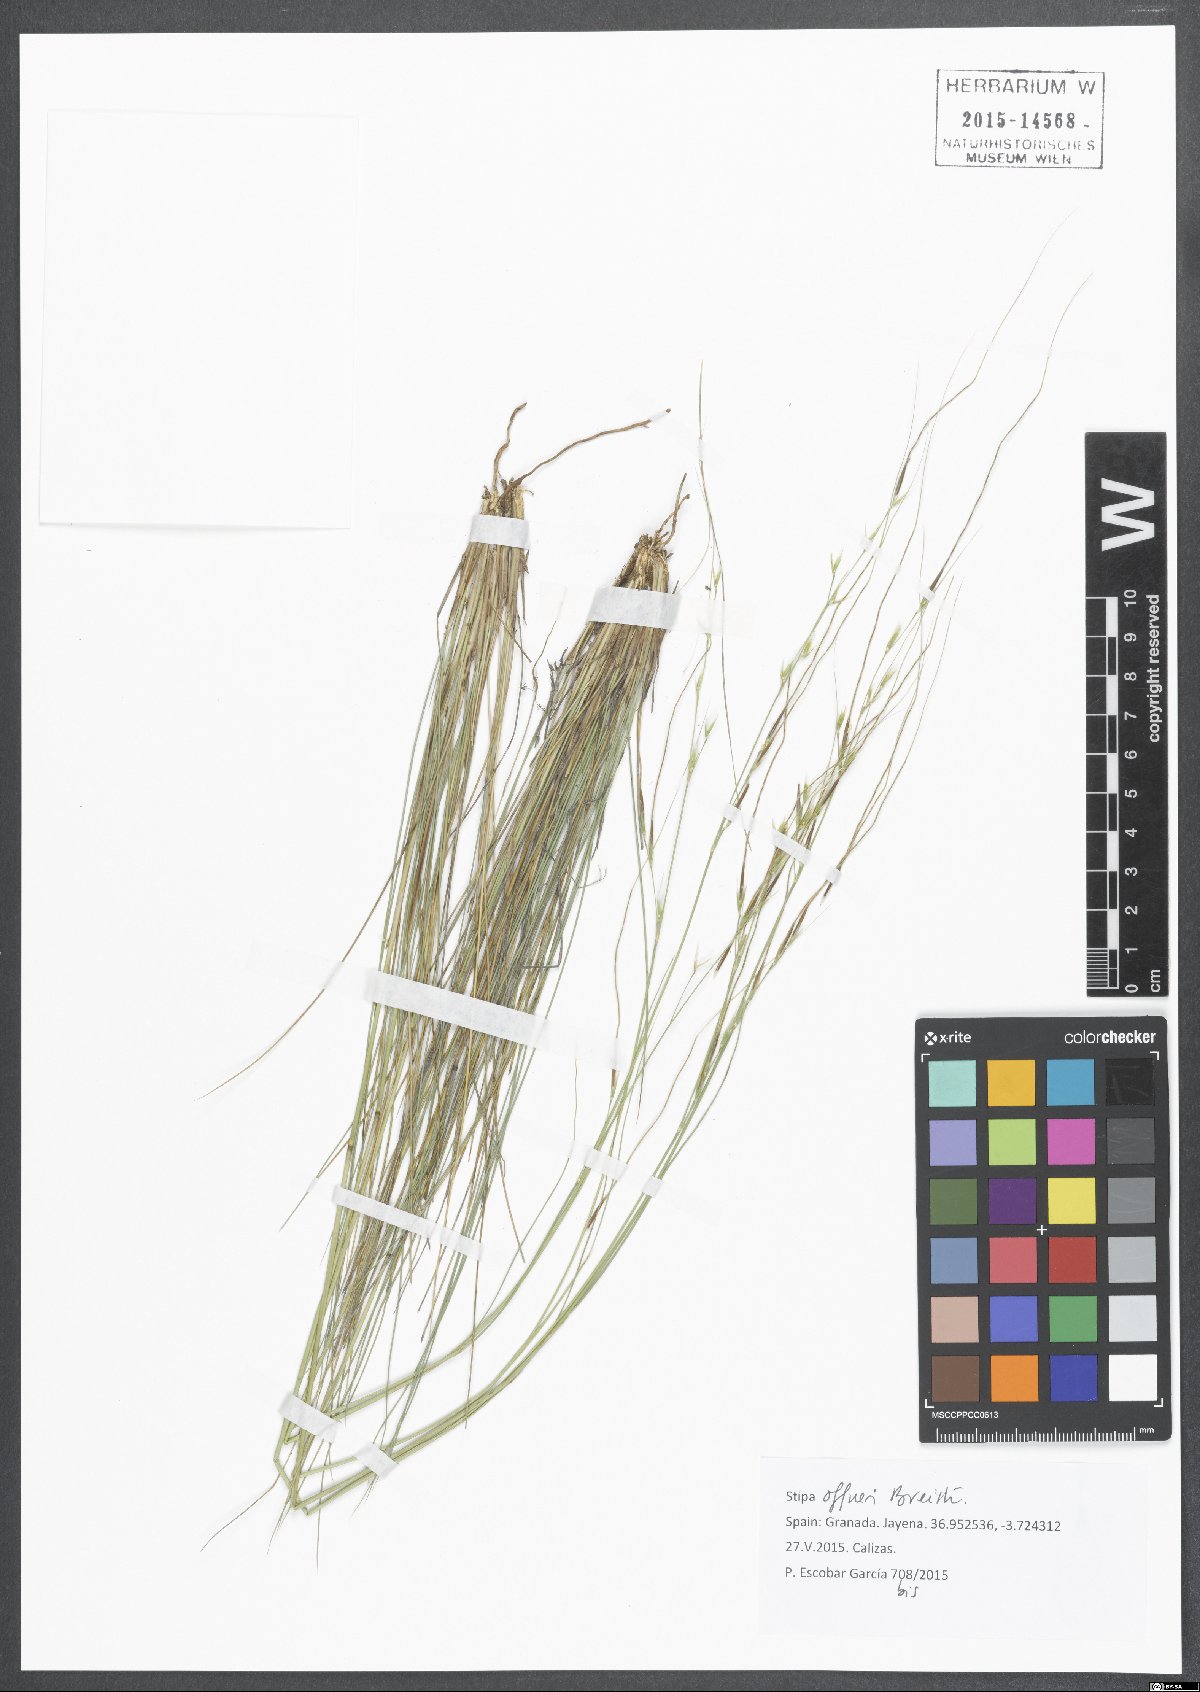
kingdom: Plantae
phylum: Tracheophyta
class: Liliopsida
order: Poales
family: Poaceae
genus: Stipa
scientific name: Stipa offneri
